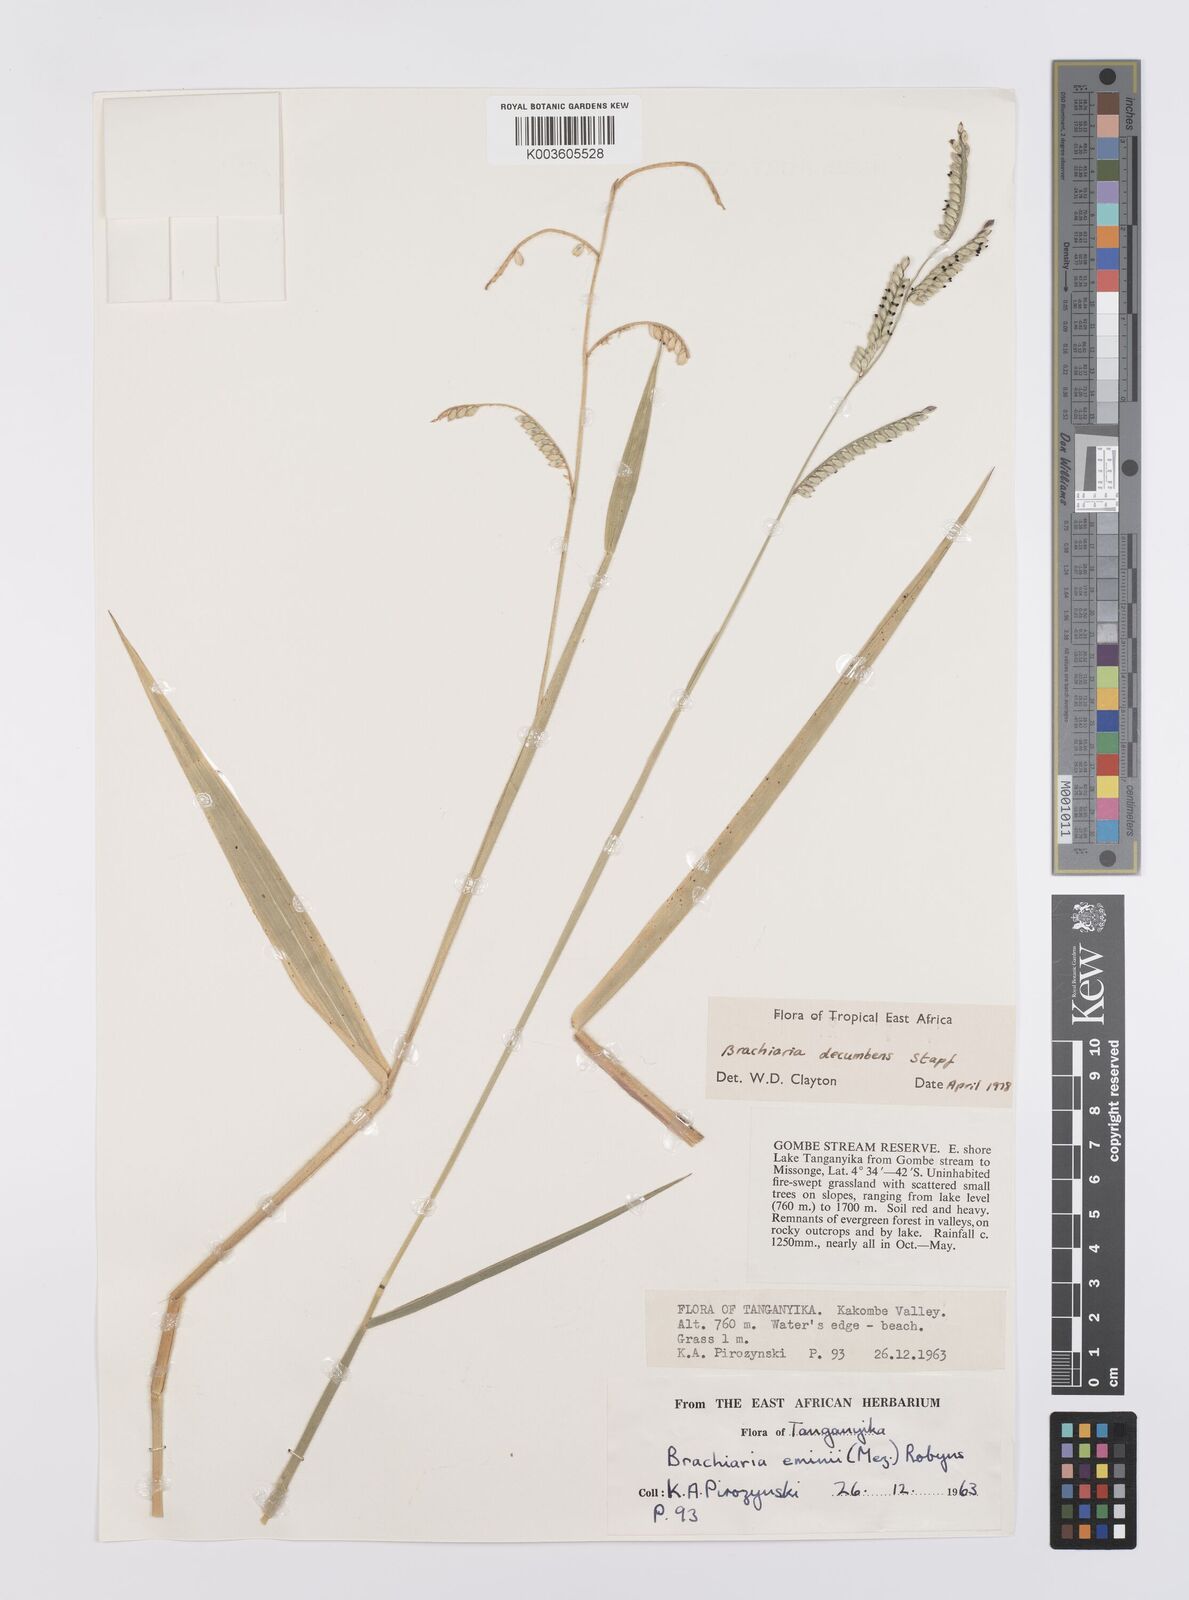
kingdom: Plantae
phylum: Tracheophyta
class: Liliopsida
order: Poales
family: Poaceae
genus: Urochloa
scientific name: Urochloa eminii
